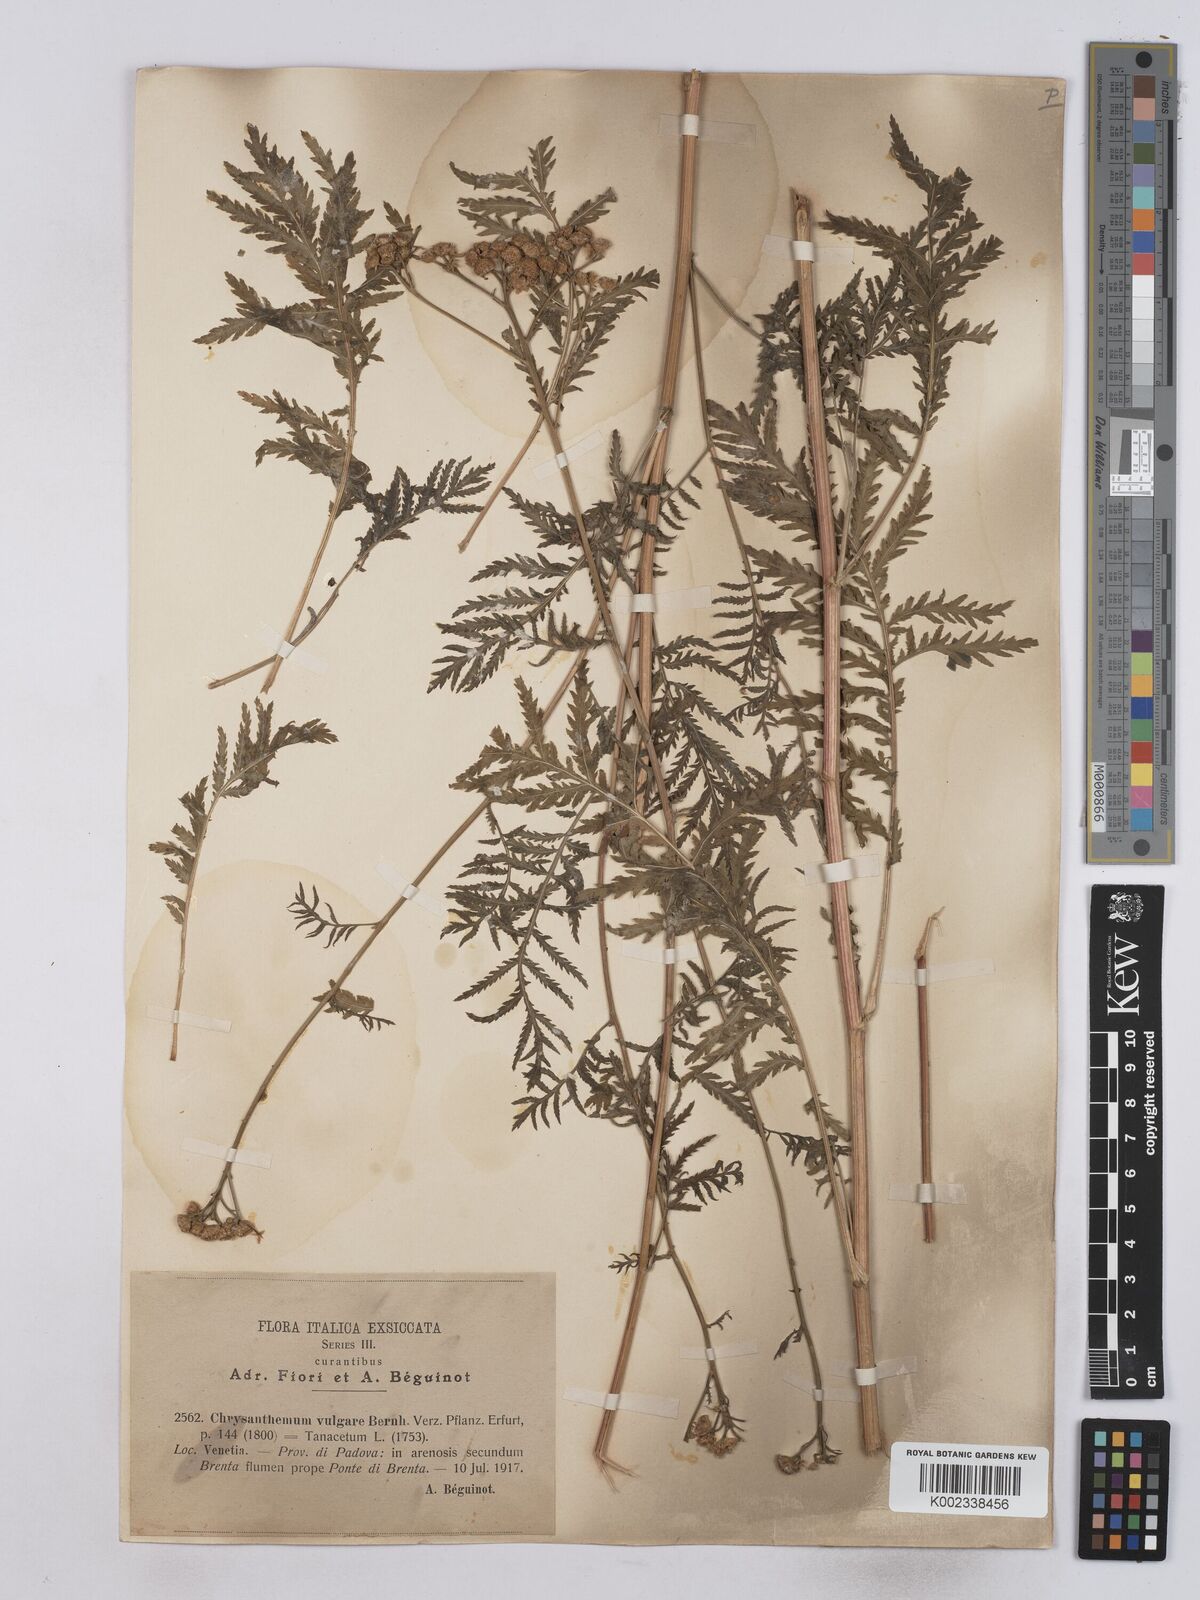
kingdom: Plantae
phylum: Tracheophyta
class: Magnoliopsida
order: Asterales
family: Asteraceae
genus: Tanacetum
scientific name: Tanacetum vulgare
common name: Common tansy
